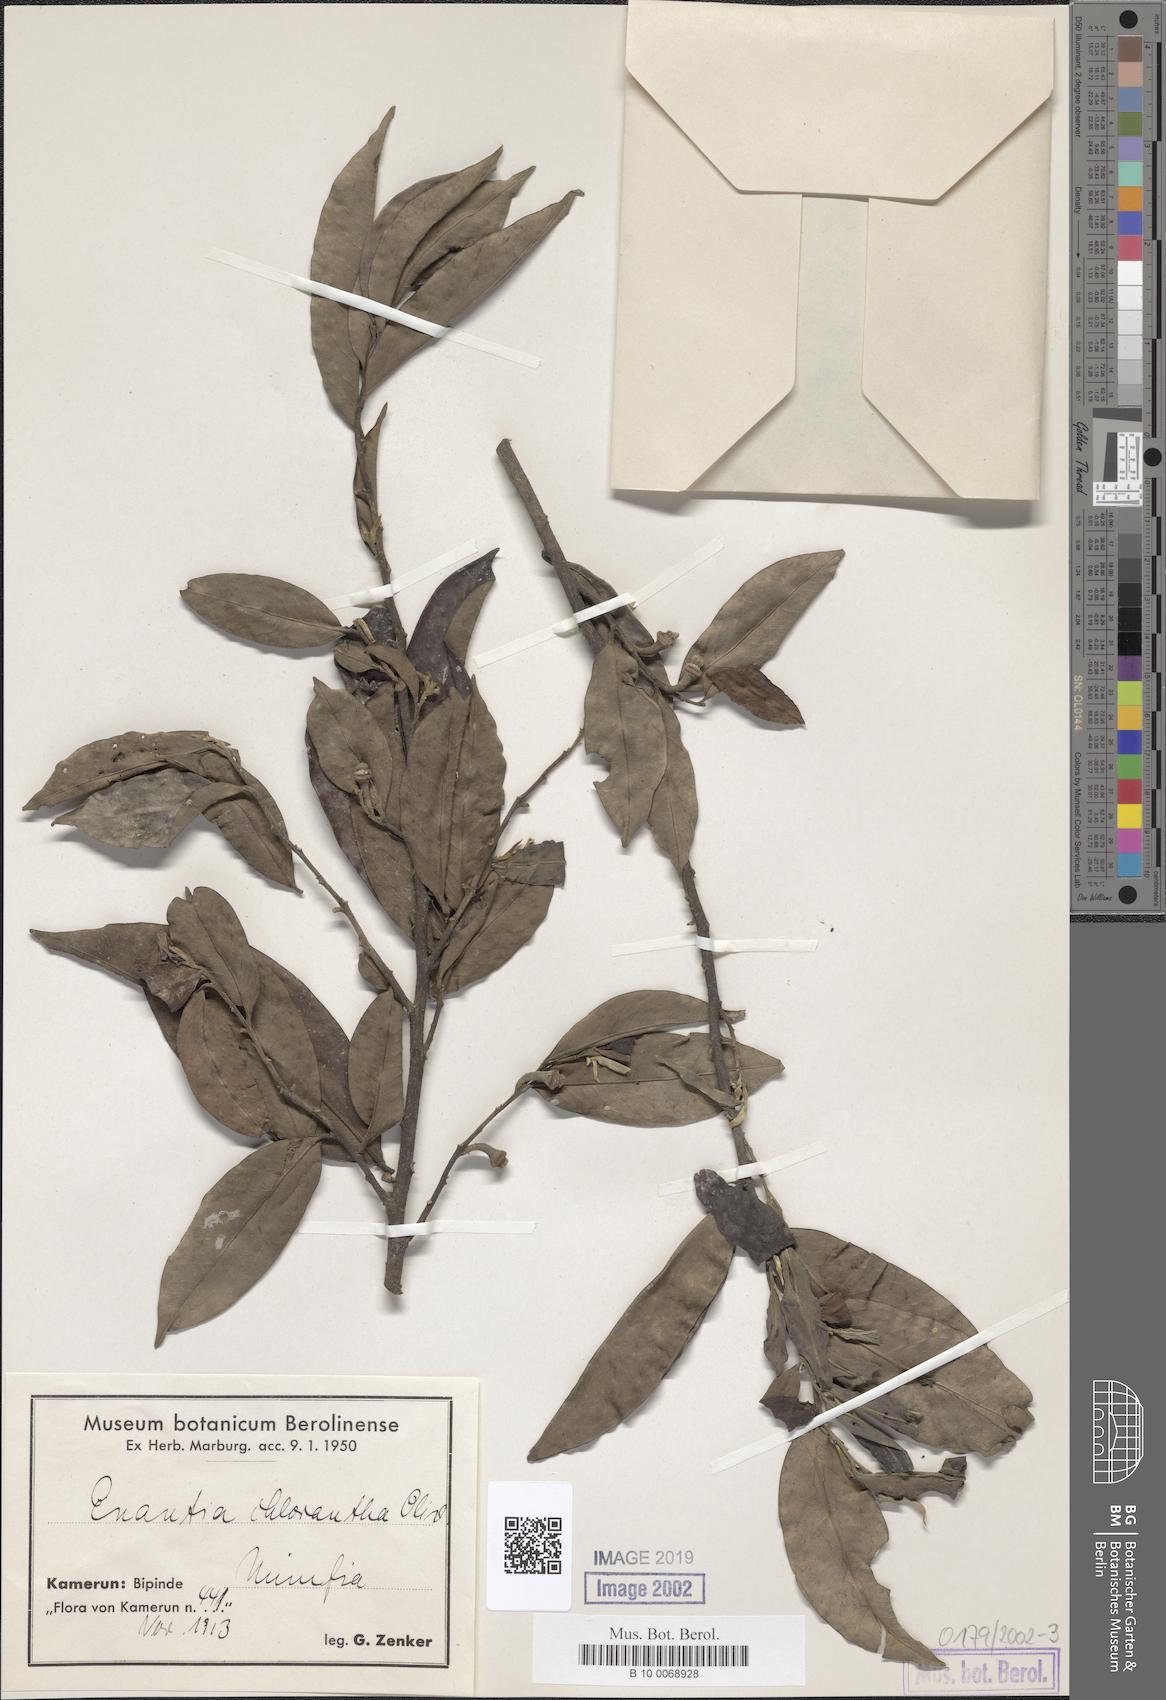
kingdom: Plantae
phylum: Tracheophyta
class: Magnoliopsida
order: Magnoliales
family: Annonaceae
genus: Annickia
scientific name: Annickia chlorantha
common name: African yellowwood
